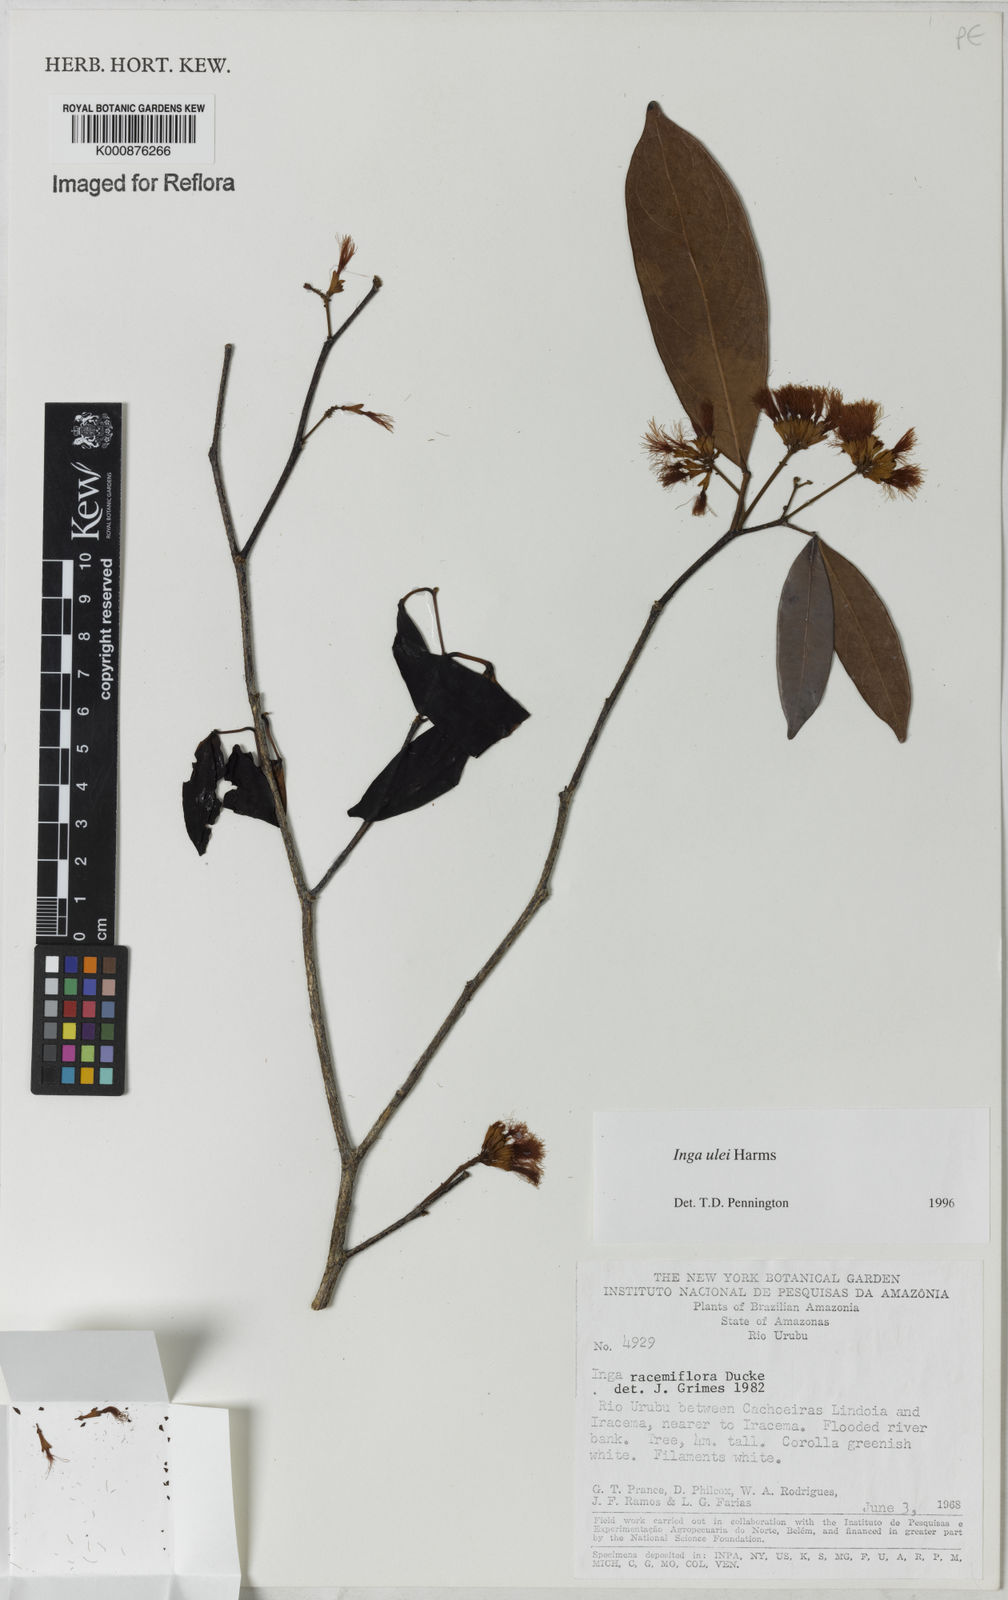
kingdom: Plantae
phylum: Tracheophyta
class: Magnoliopsida
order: Fabales
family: Fabaceae
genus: Inga
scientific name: Inga ulei
